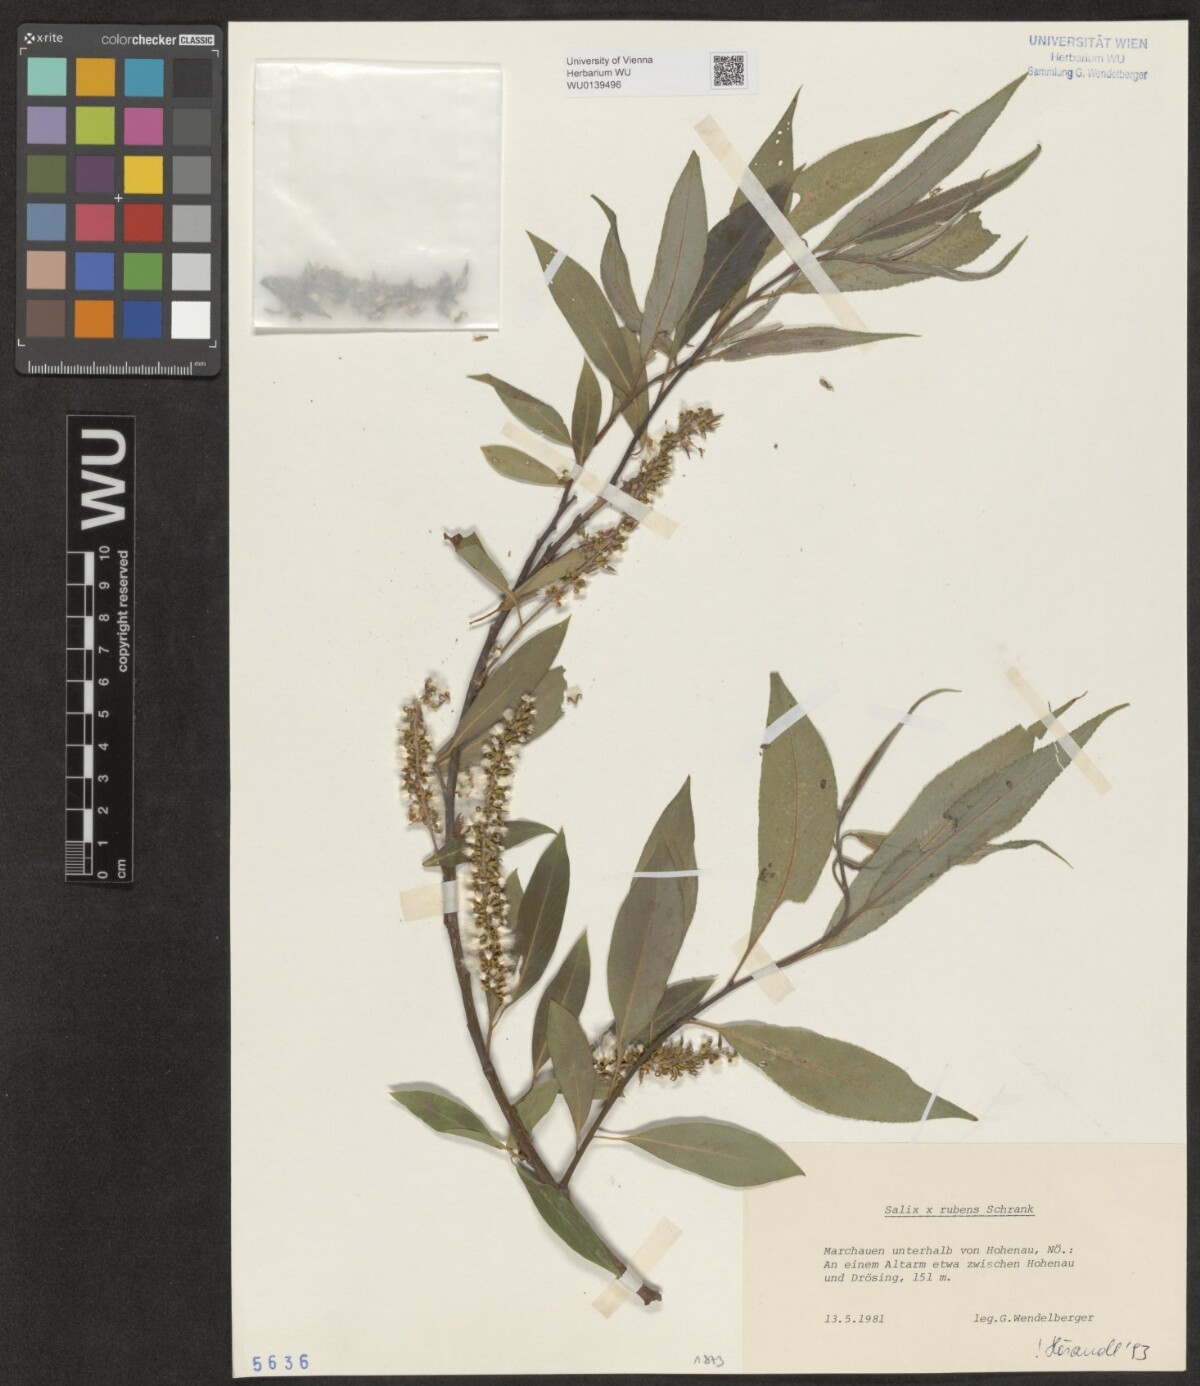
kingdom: Plantae
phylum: Tracheophyta
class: Magnoliopsida
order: Malpighiales
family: Salicaceae
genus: Salix
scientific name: Salix rubens
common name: Hybrid crack willow
